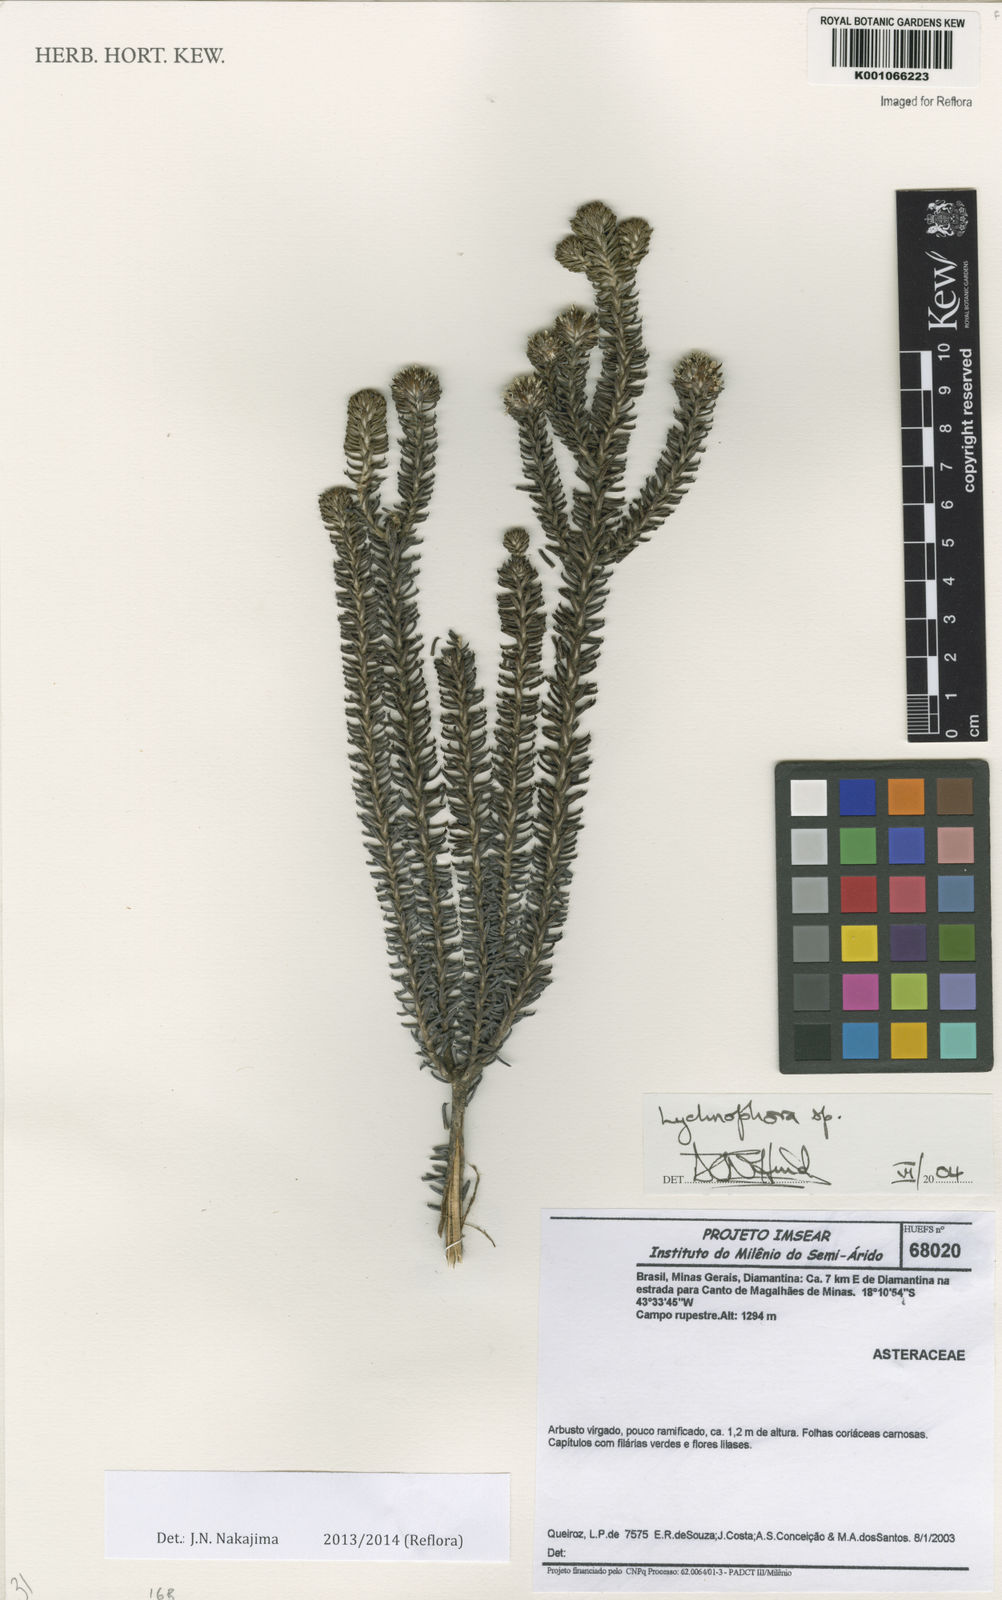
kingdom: Plantae
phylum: Tracheophyta
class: Magnoliopsida
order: Asterales
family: Asteraceae
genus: Lychnophora
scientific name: Lychnophora ramosissima
